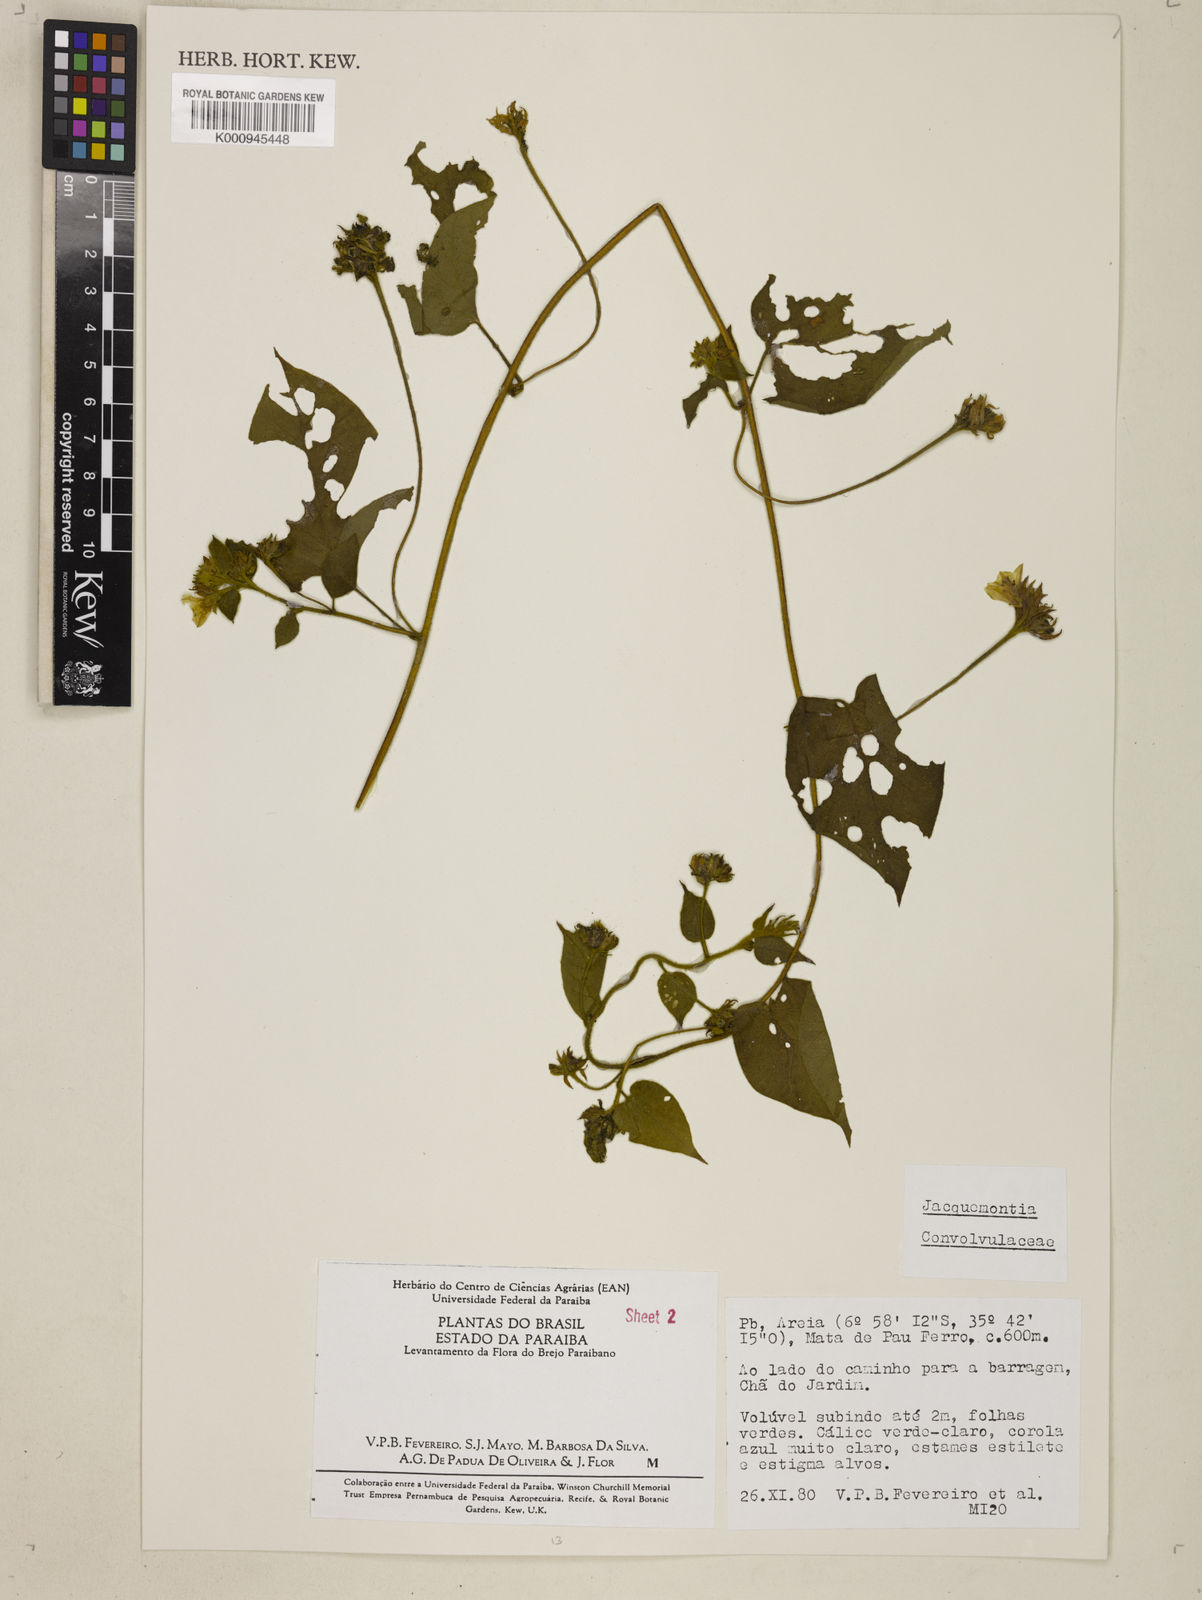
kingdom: Plantae
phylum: Tracheophyta
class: Magnoliopsida
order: Solanales
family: Convolvulaceae
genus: Jacquemontia
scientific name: Jacquemontia
